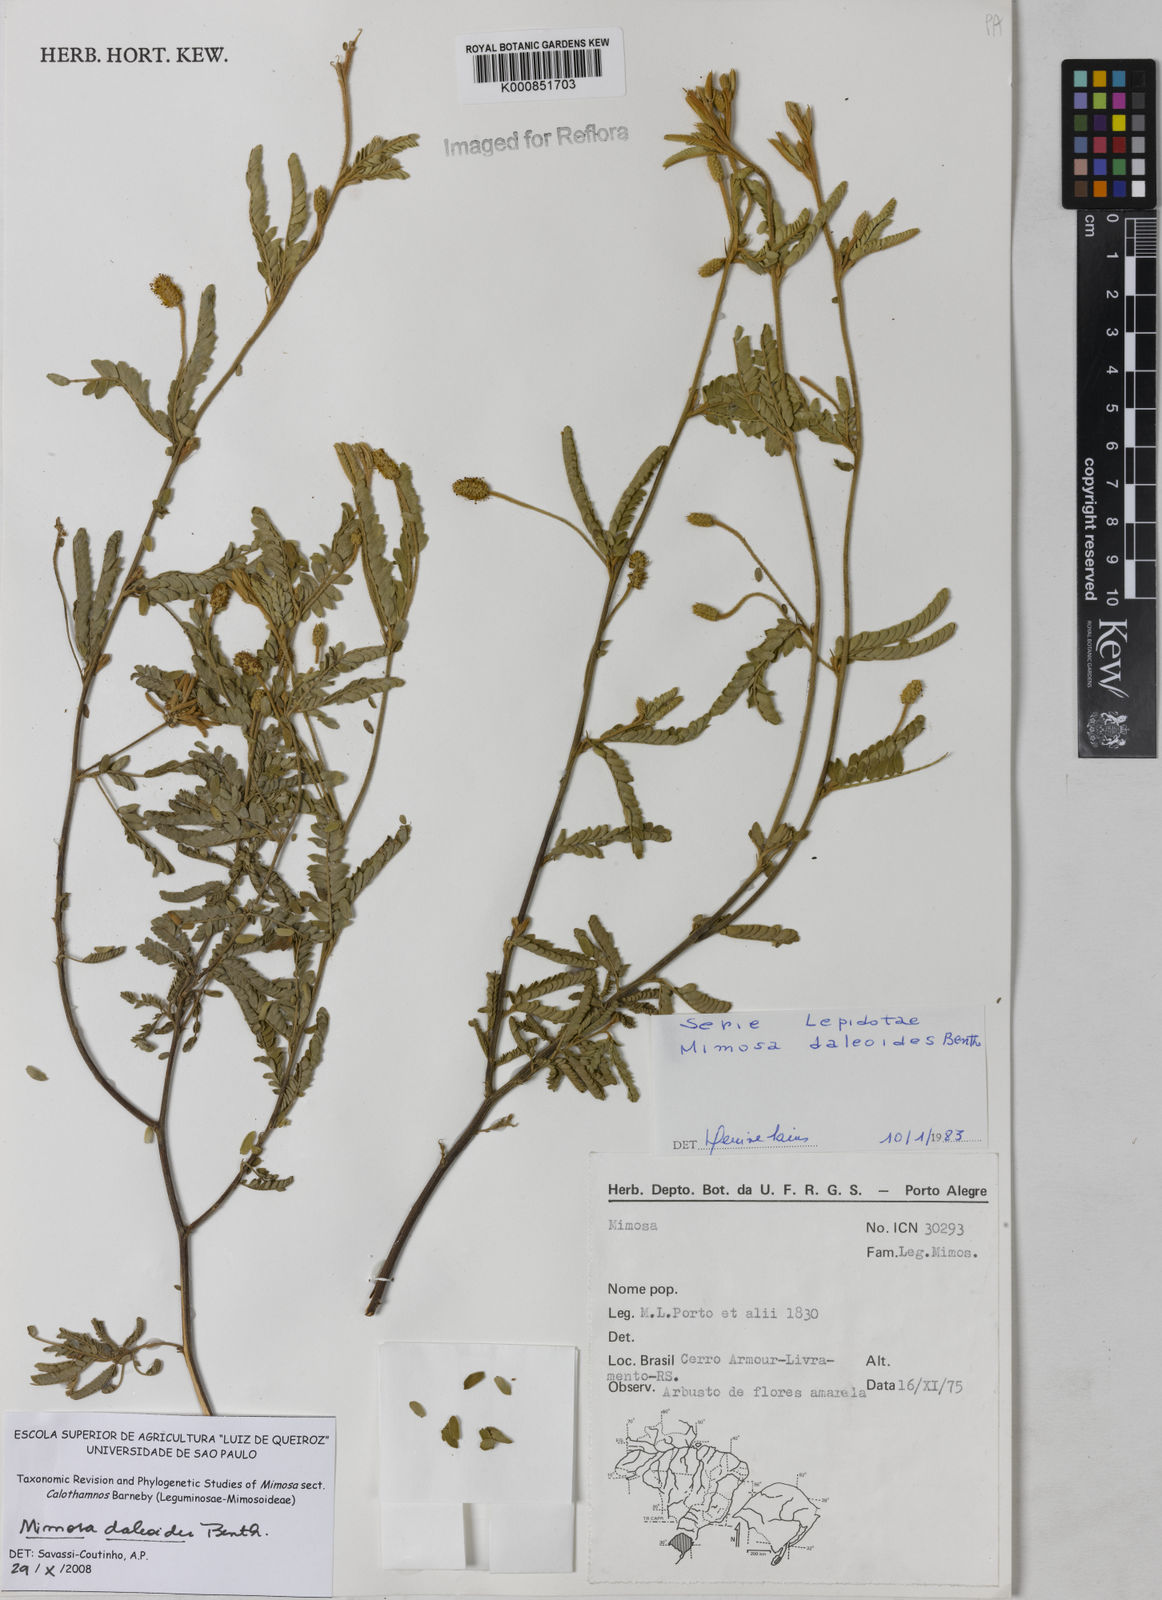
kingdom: Plantae
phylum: Tracheophyta
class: Magnoliopsida
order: Fabales
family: Fabaceae
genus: Mimosa
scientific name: Mimosa daleoides
